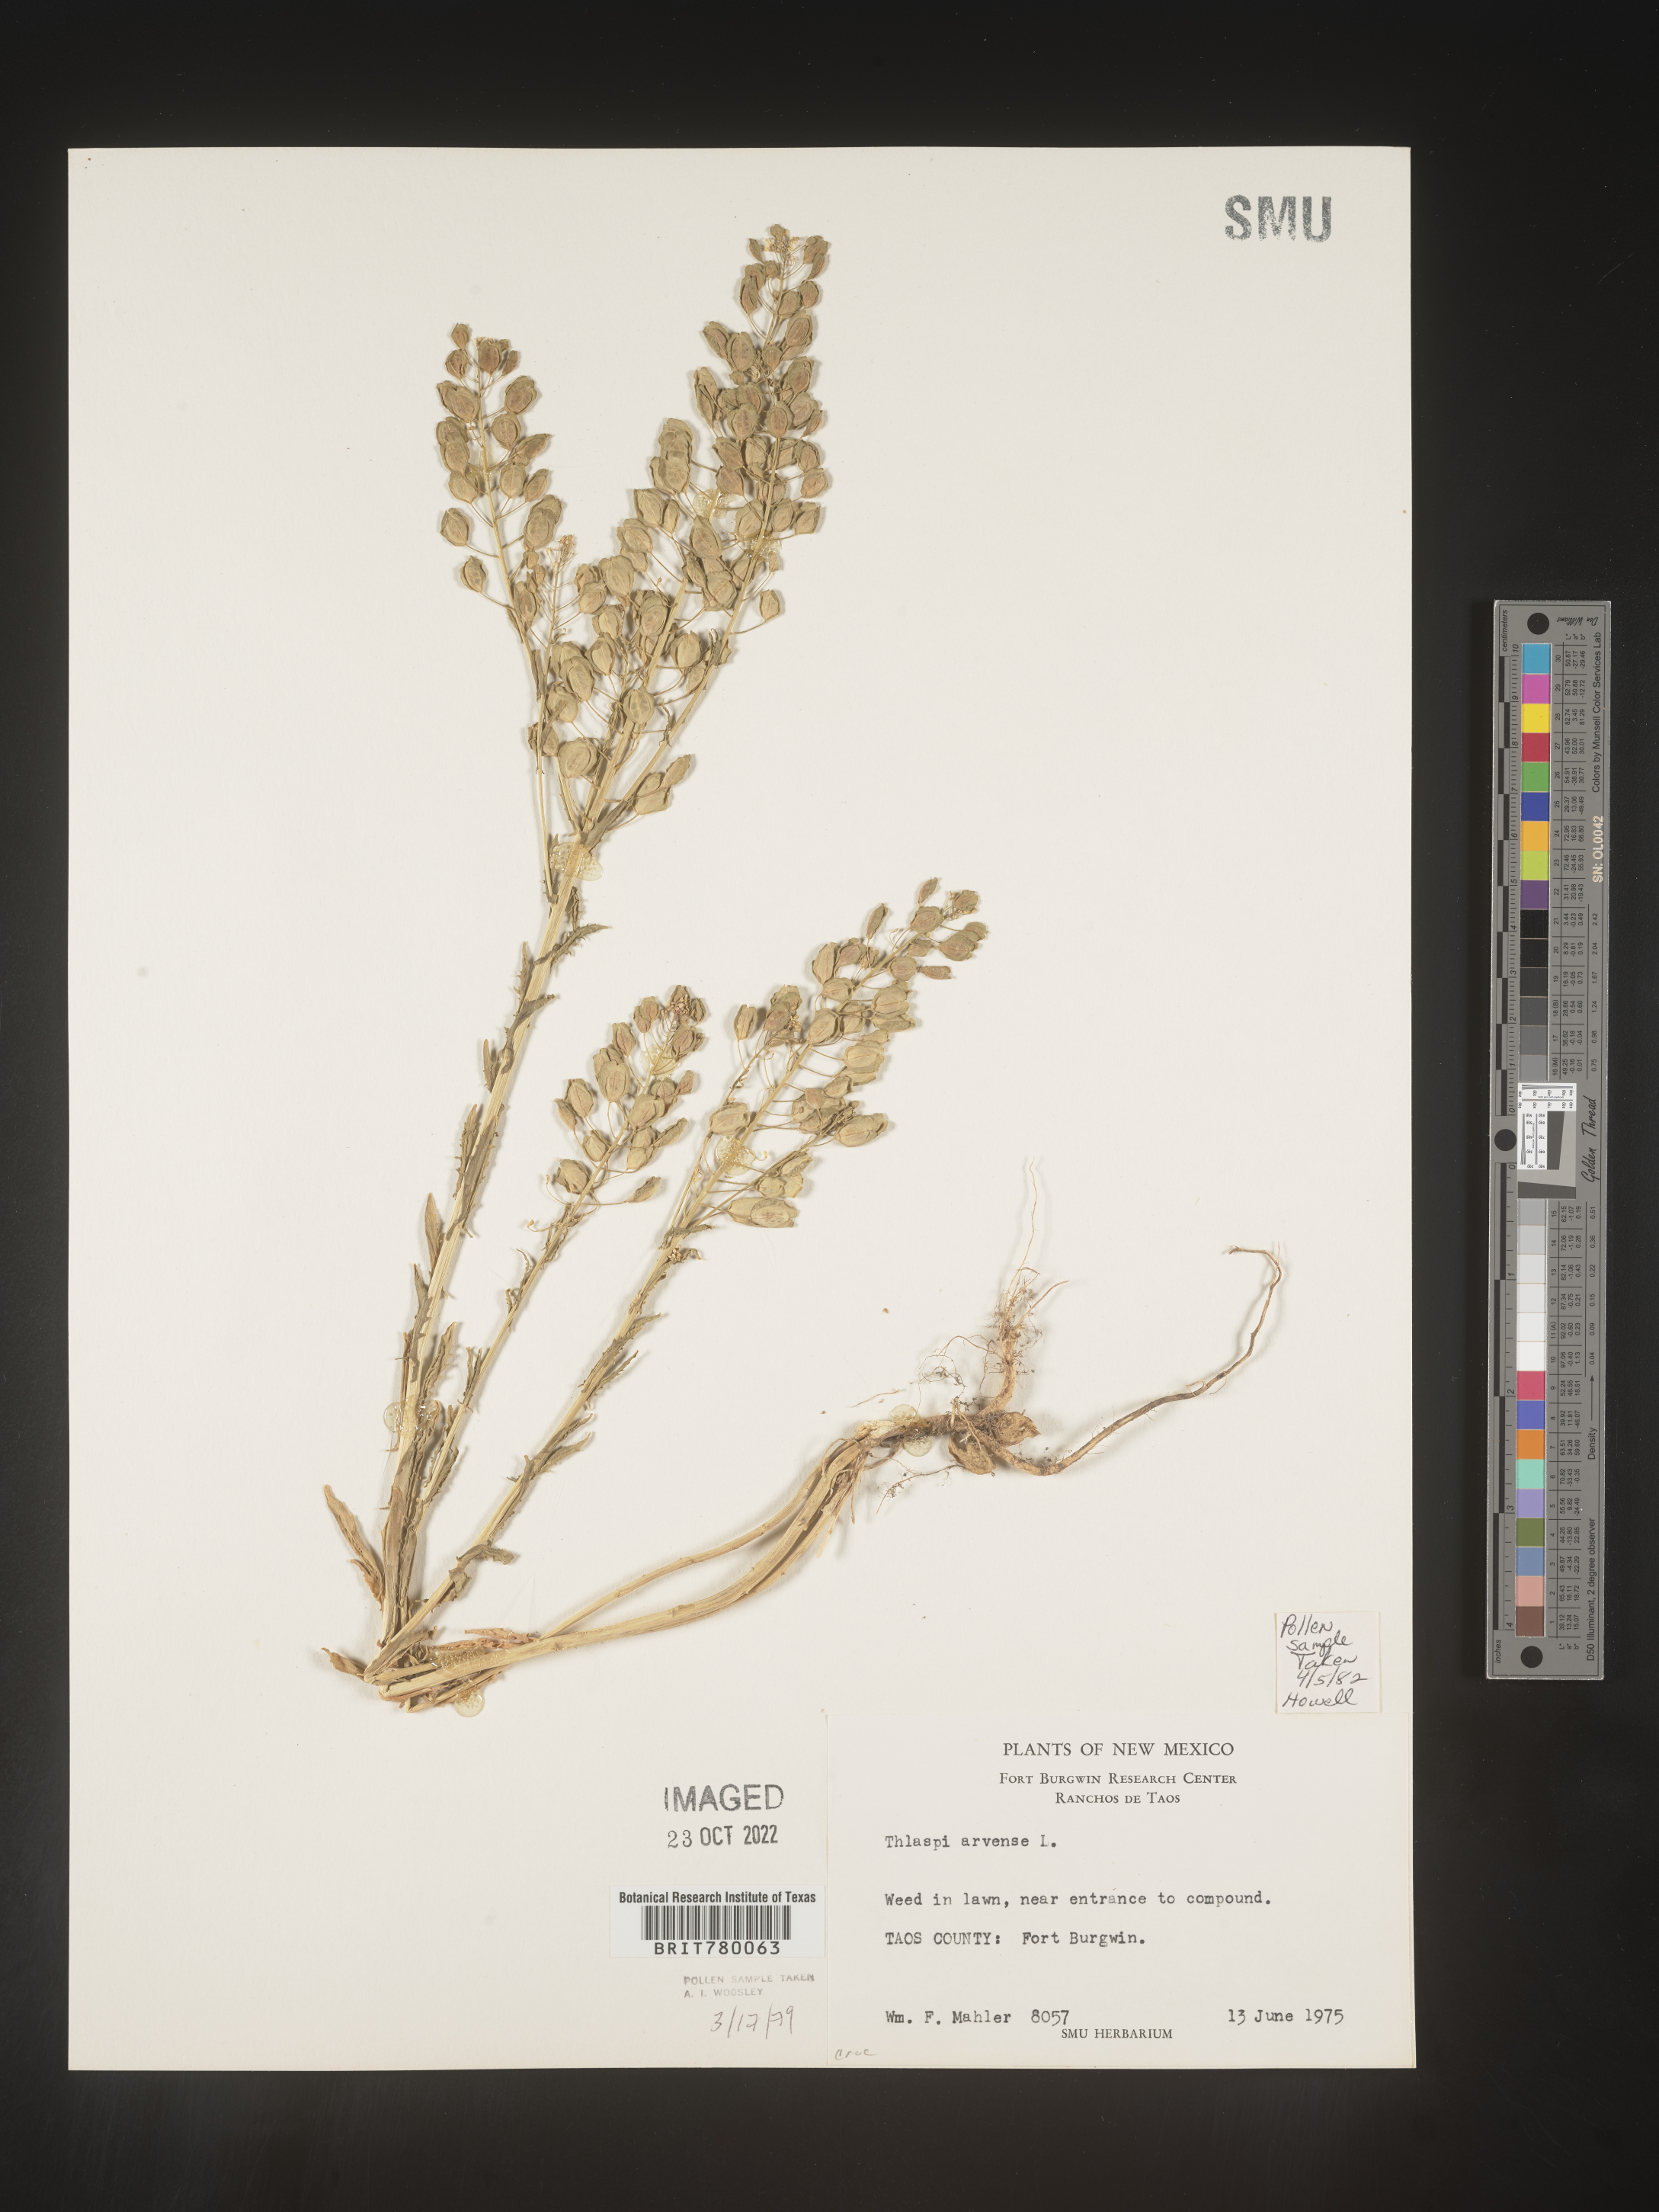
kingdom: Plantae
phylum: Tracheophyta
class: Magnoliopsida
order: Brassicales
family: Brassicaceae
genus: Thlaspi
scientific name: Thlaspi arvense
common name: Field pennycress
